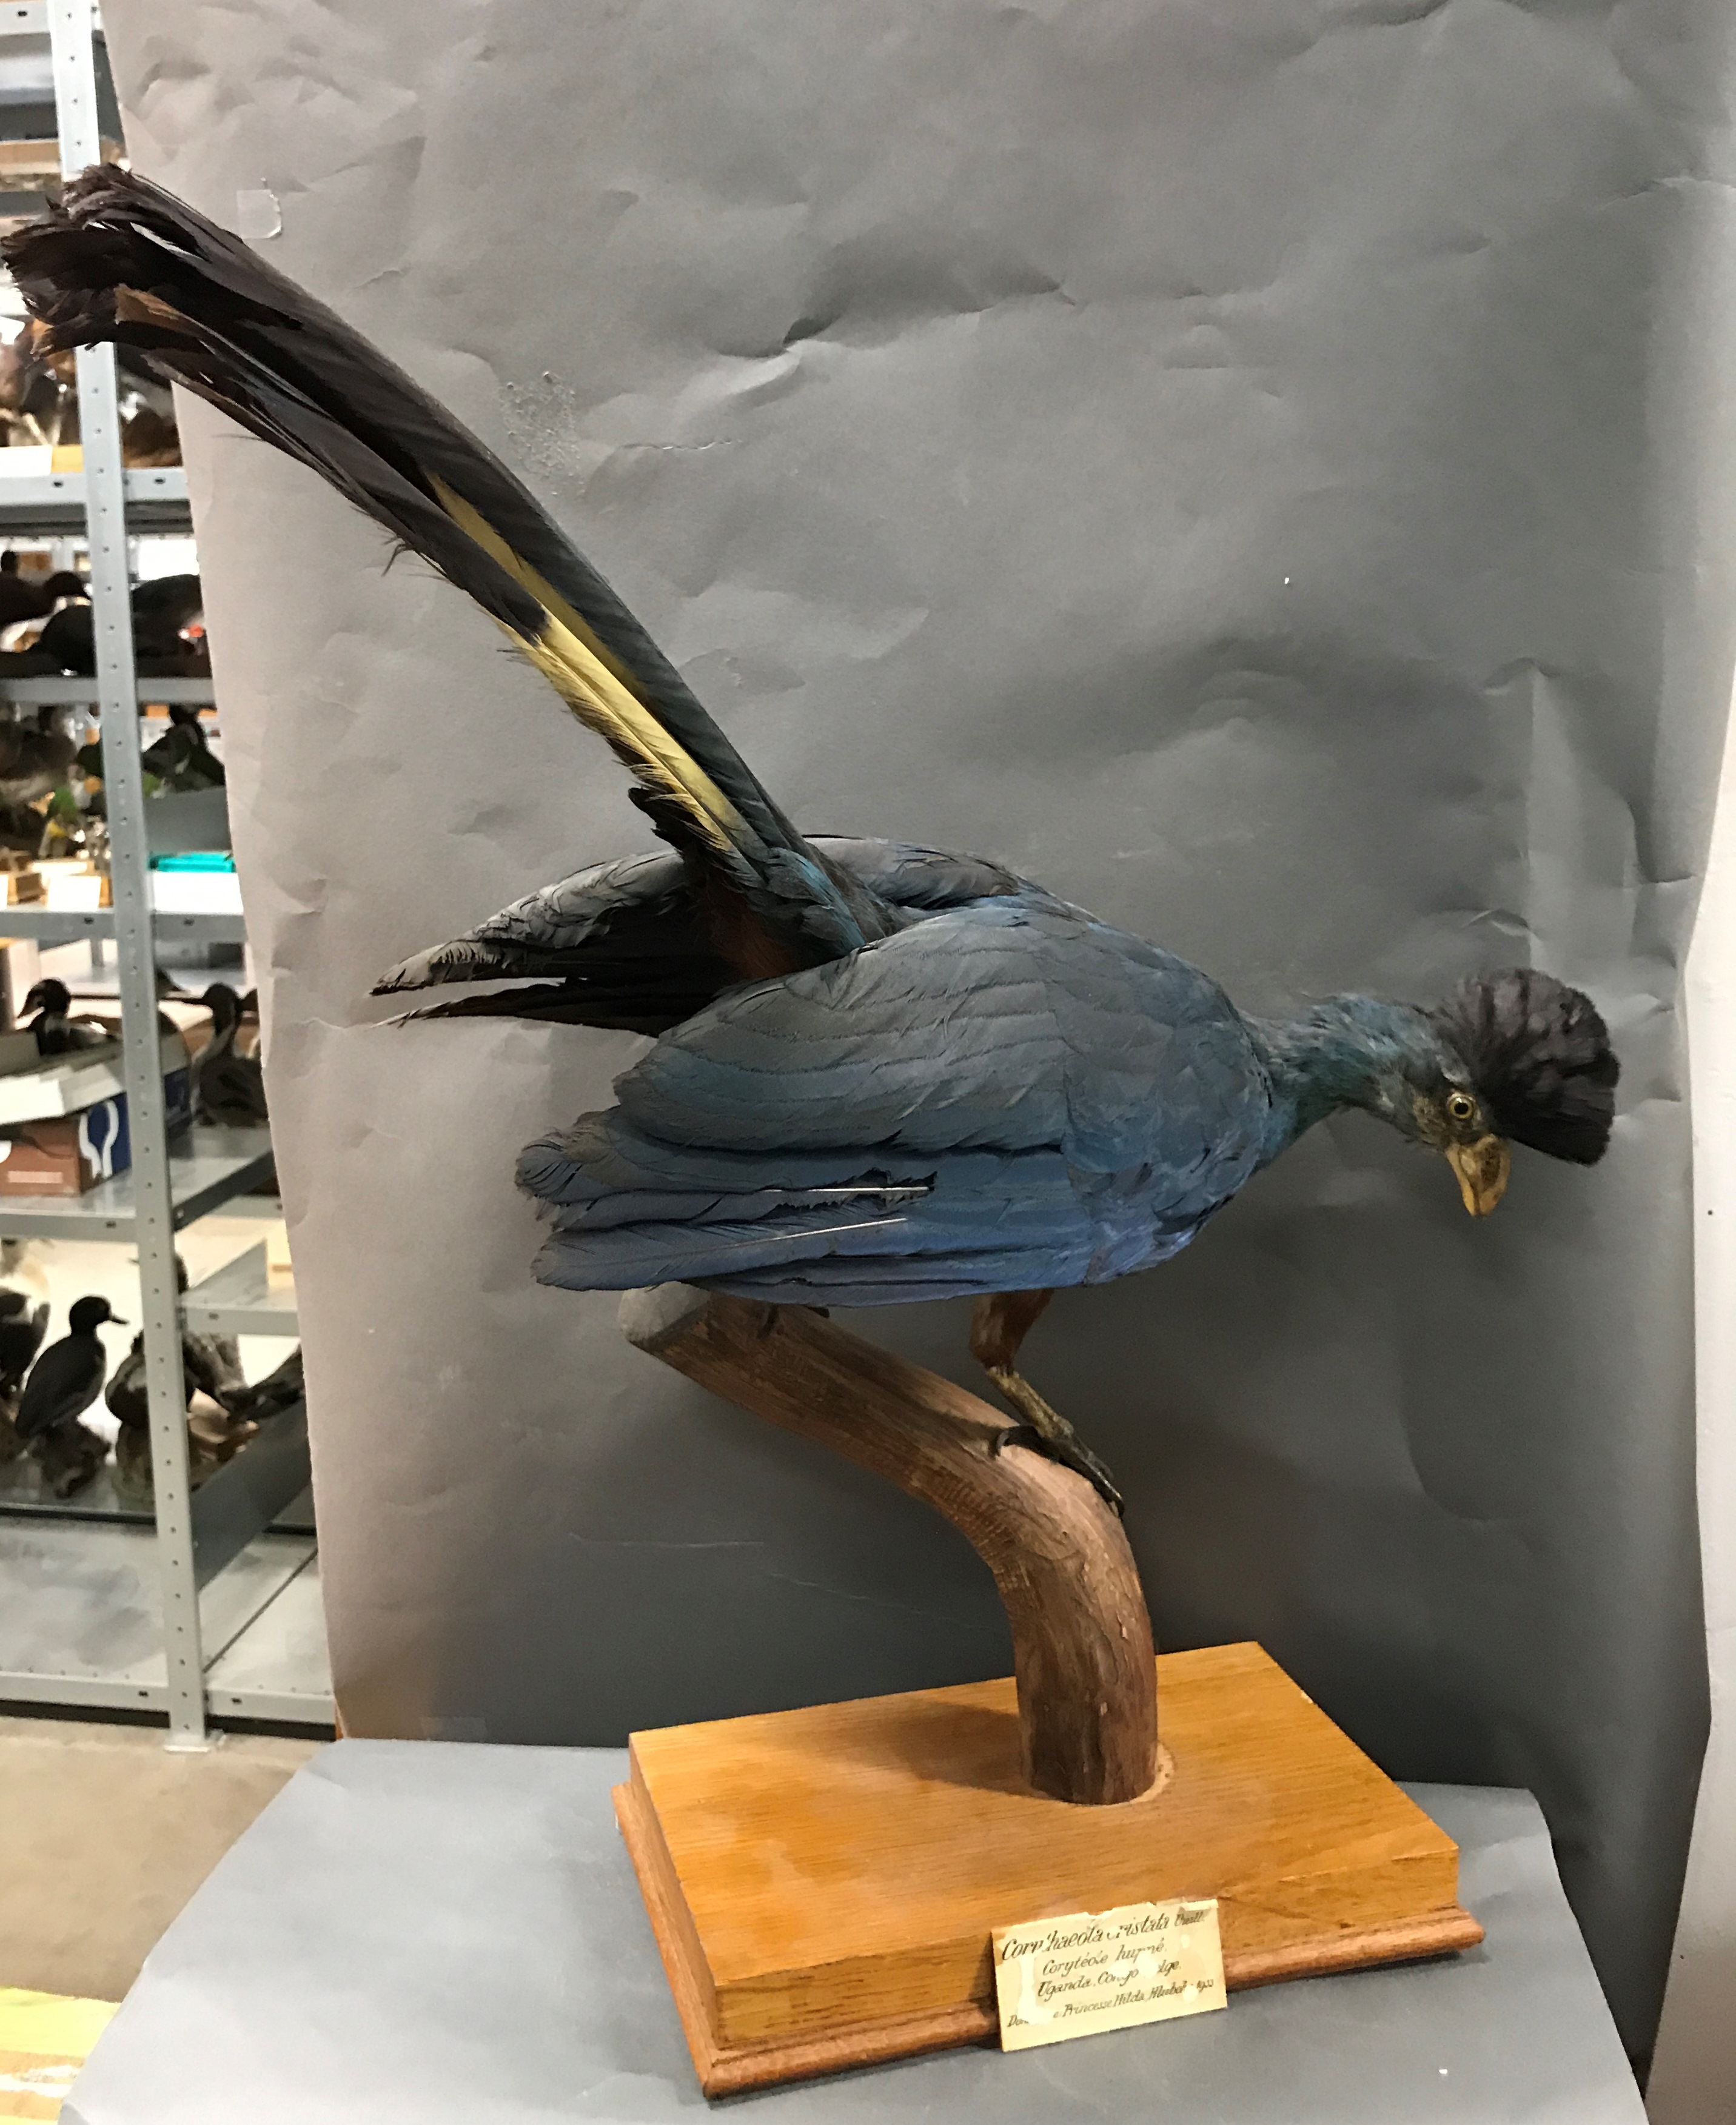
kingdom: Animalia
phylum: Chordata
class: Aves
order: Musophagiformes
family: Musophagidae
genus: Corythaeola
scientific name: Corythaeola cristata
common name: Great blue turaco
